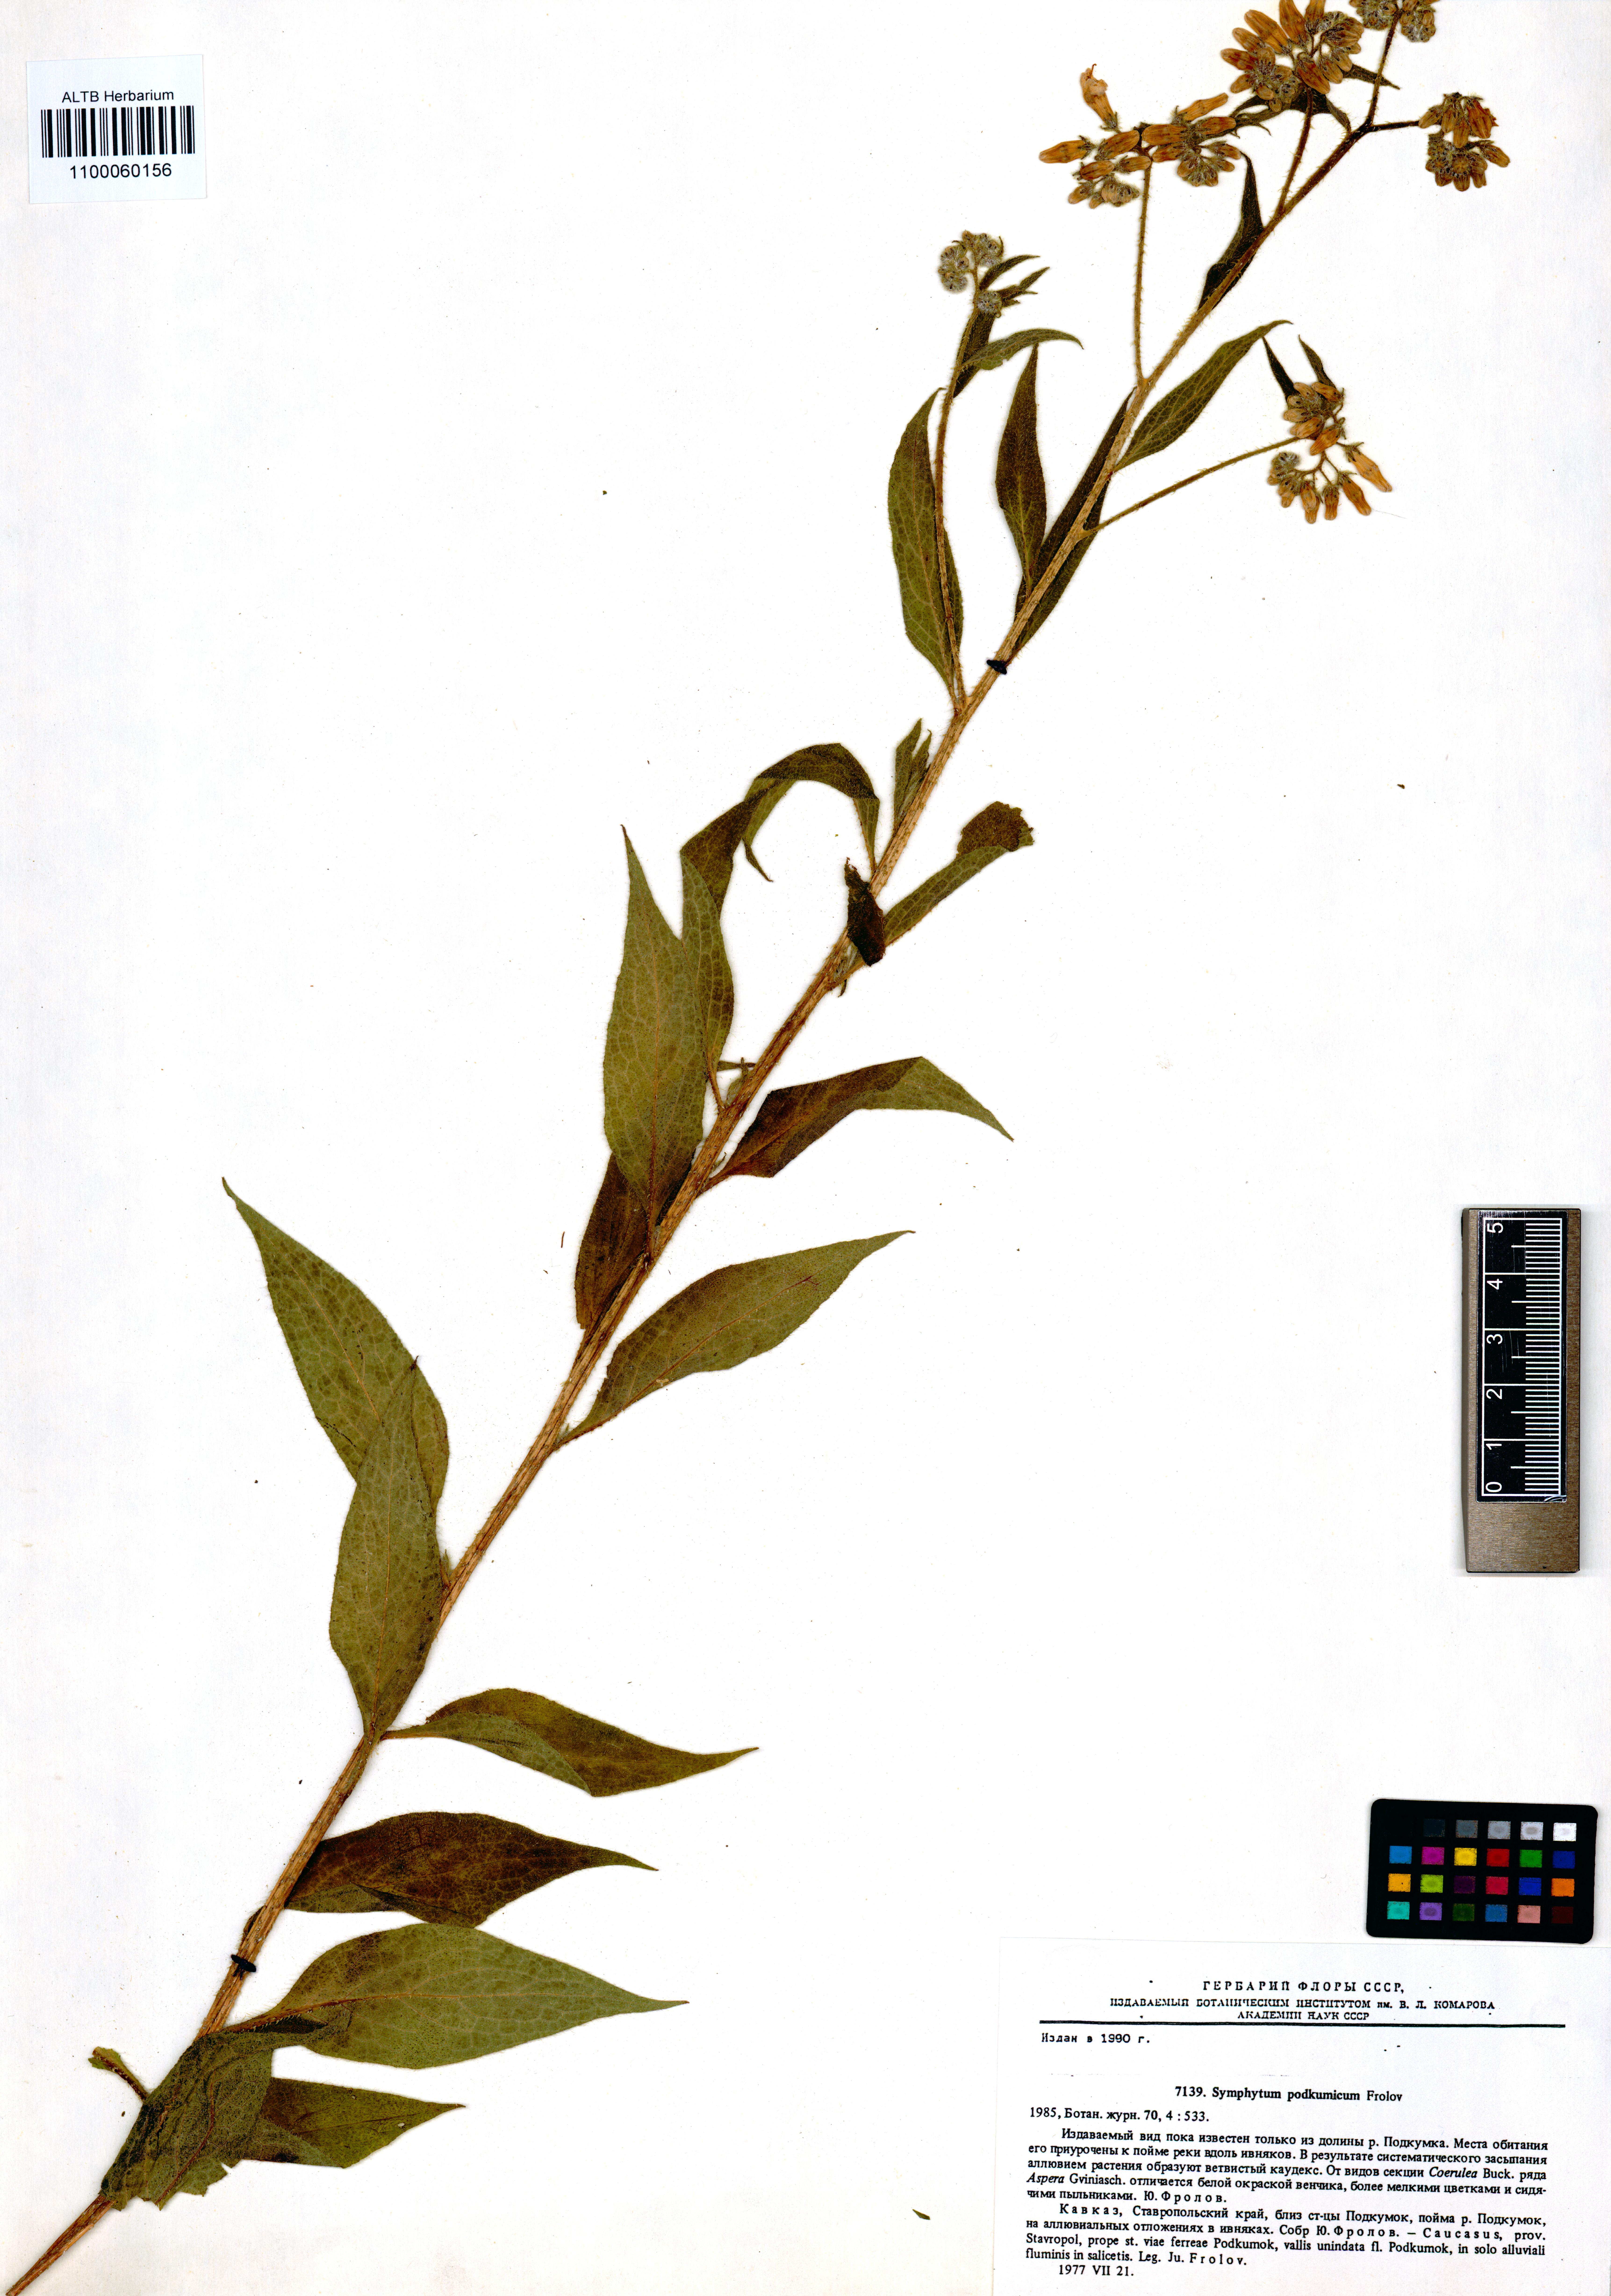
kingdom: Plantae
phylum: Tracheophyta
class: Magnoliopsida
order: Boraginales
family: Boraginaceae
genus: Symphytum
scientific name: Symphytum podcumicum
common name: Podkumian comfrey
